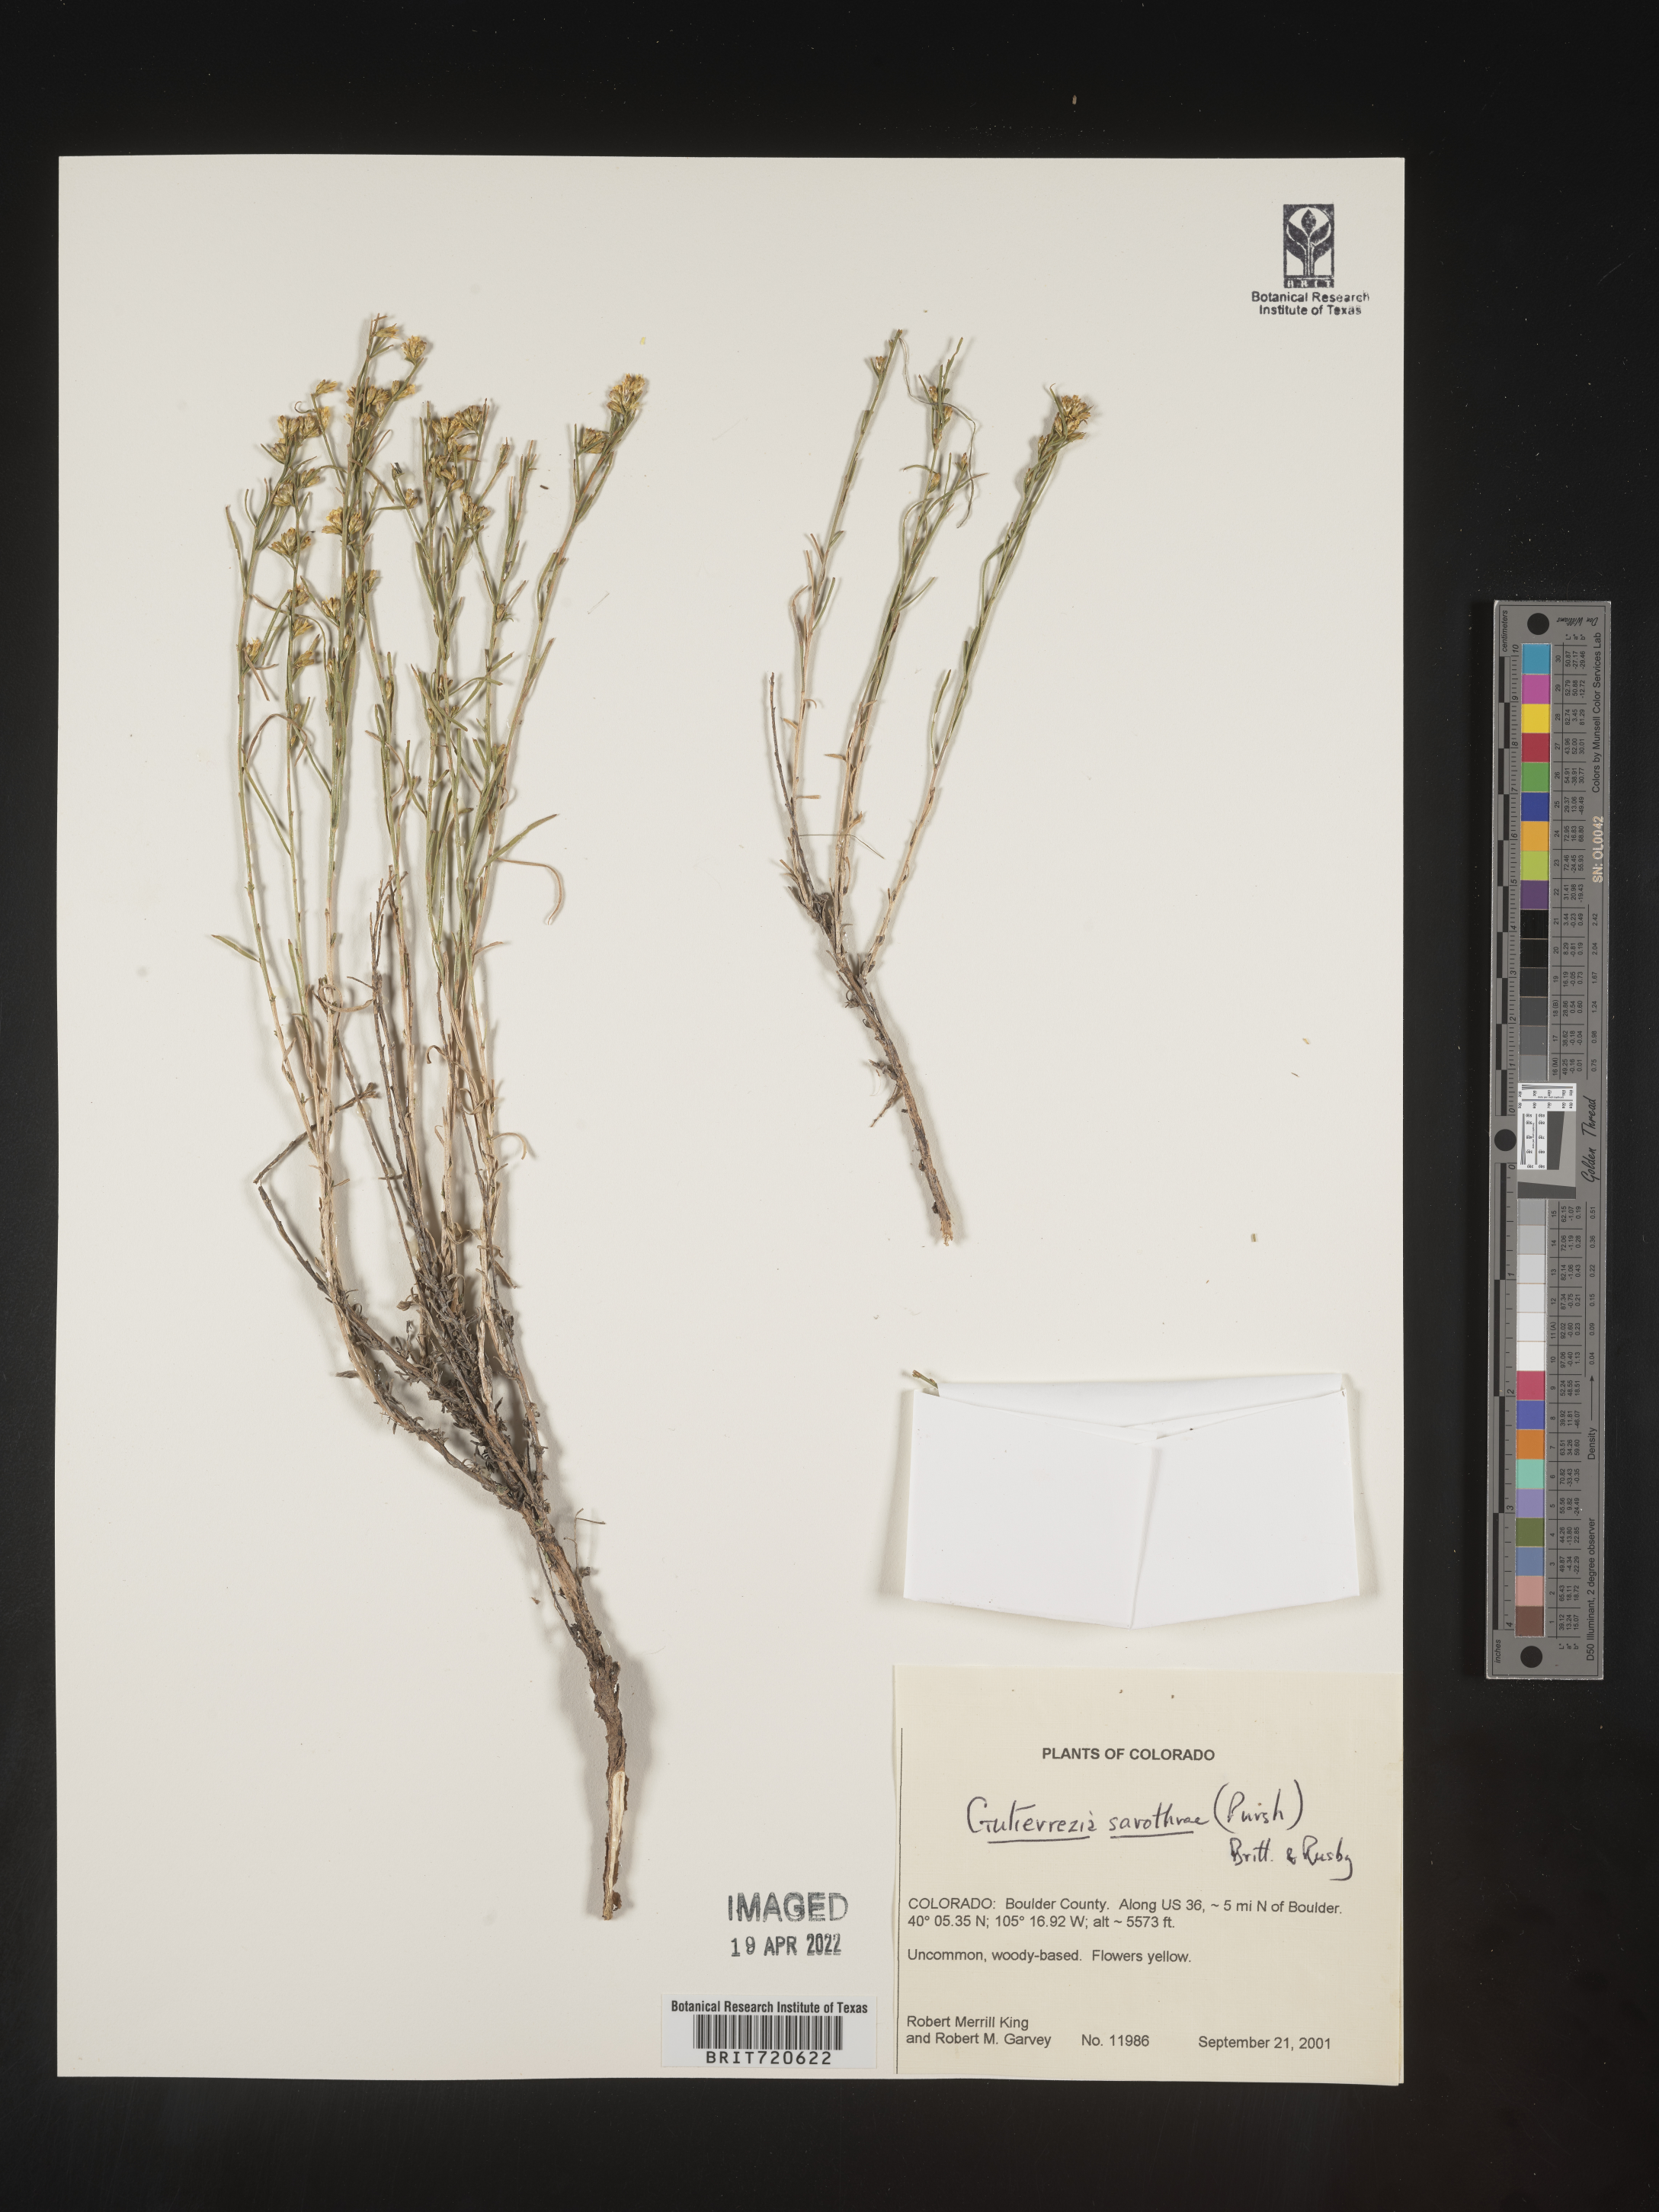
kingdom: Plantae
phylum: Tracheophyta
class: Magnoliopsida
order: Asterales
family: Asteraceae
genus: Gutierrezia
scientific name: Gutierrezia sarothrae
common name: Broom snakeweed
